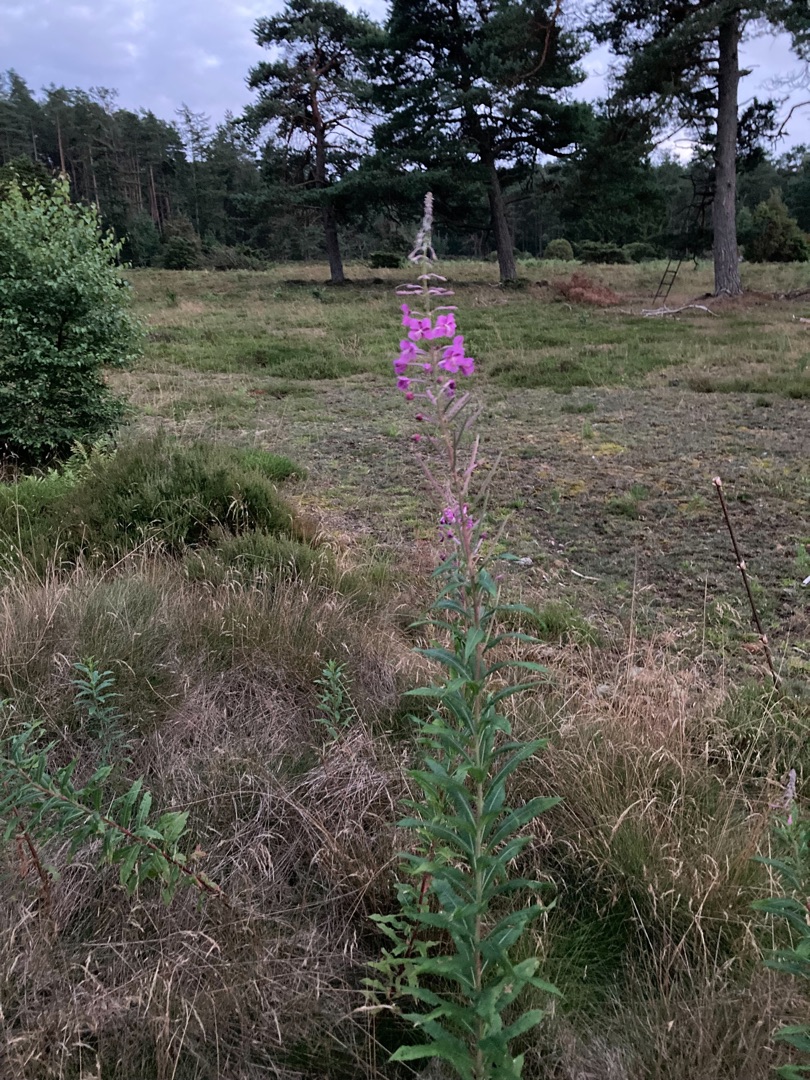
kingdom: Plantae
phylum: Tracheophyta
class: Magnoliopsida
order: Myrtales
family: Onagraceae
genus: Chamaenerion
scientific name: Chamaenerion angustifolium
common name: Gederams
